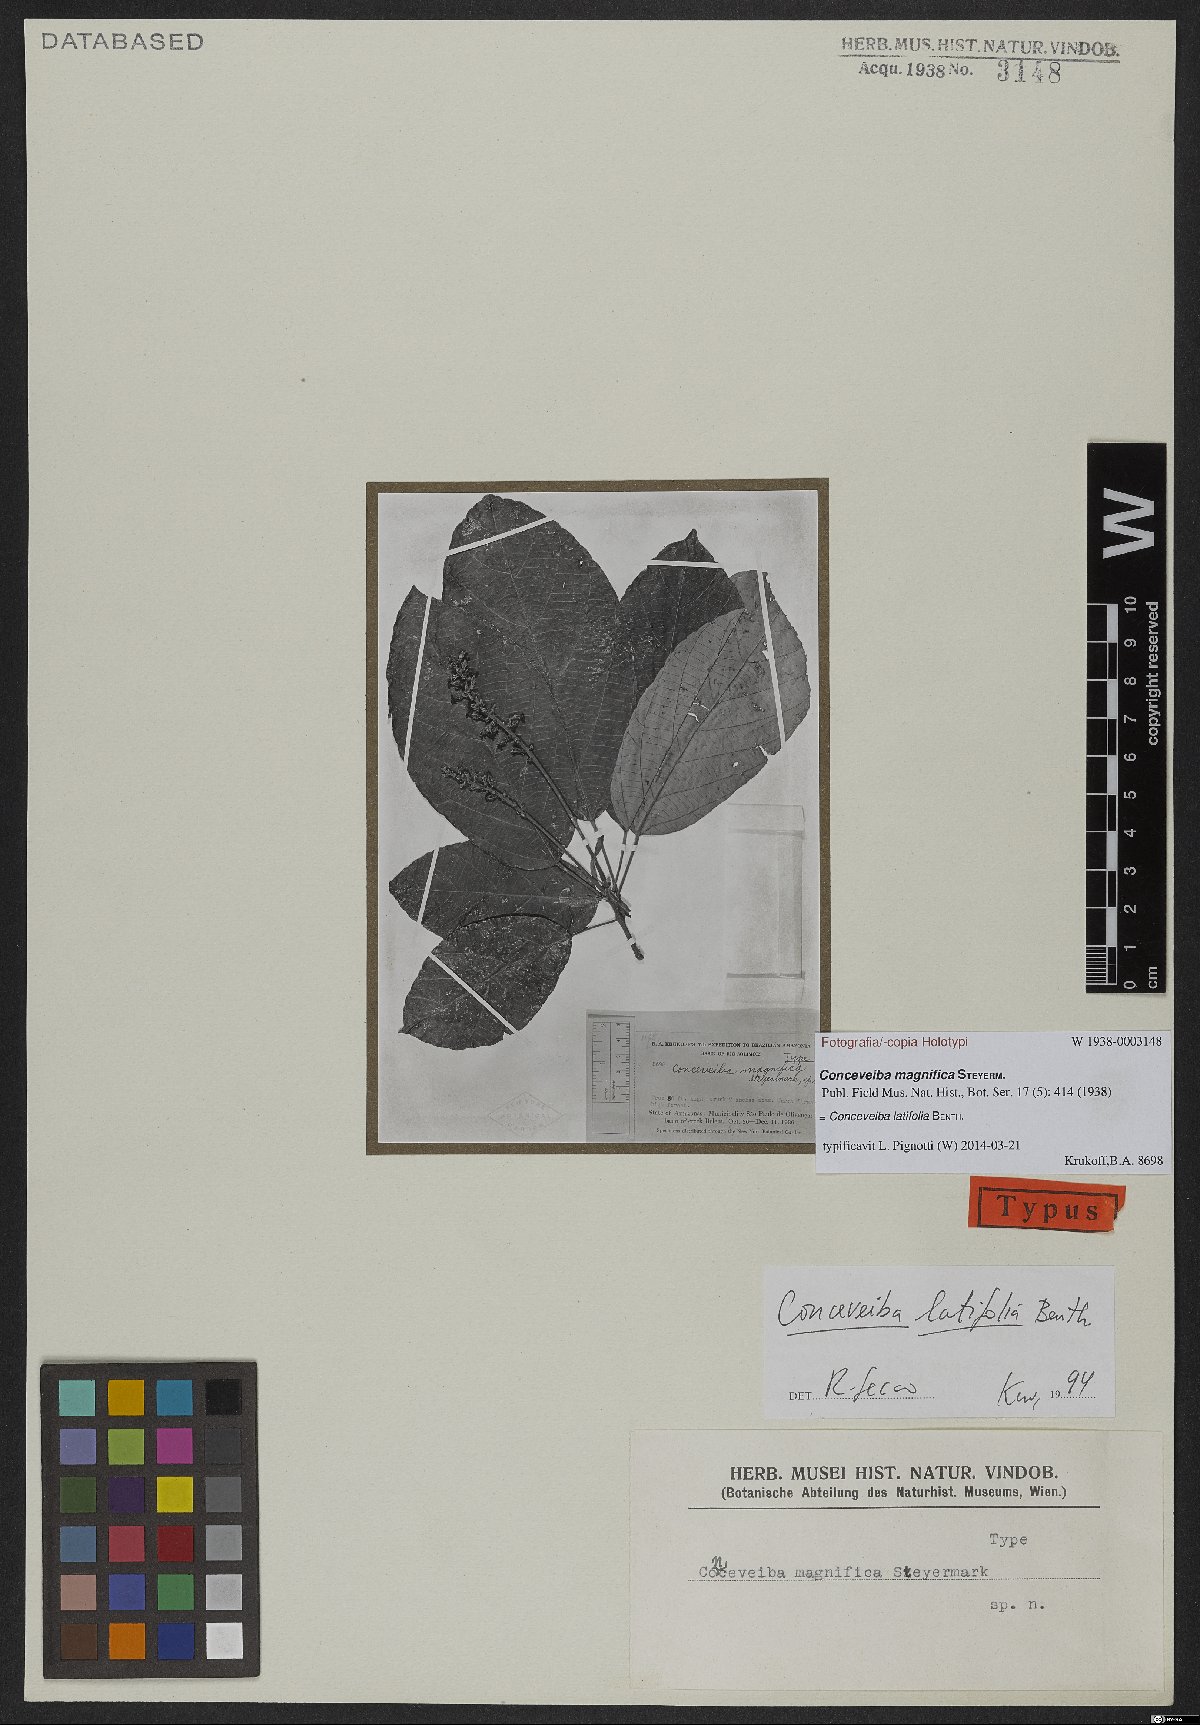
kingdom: Plantae
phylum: Tracheophyta
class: Magnoliopsida
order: Malpighiales
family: Euphorbiaceae
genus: Conceveiba
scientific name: Conceveiba latifolia
